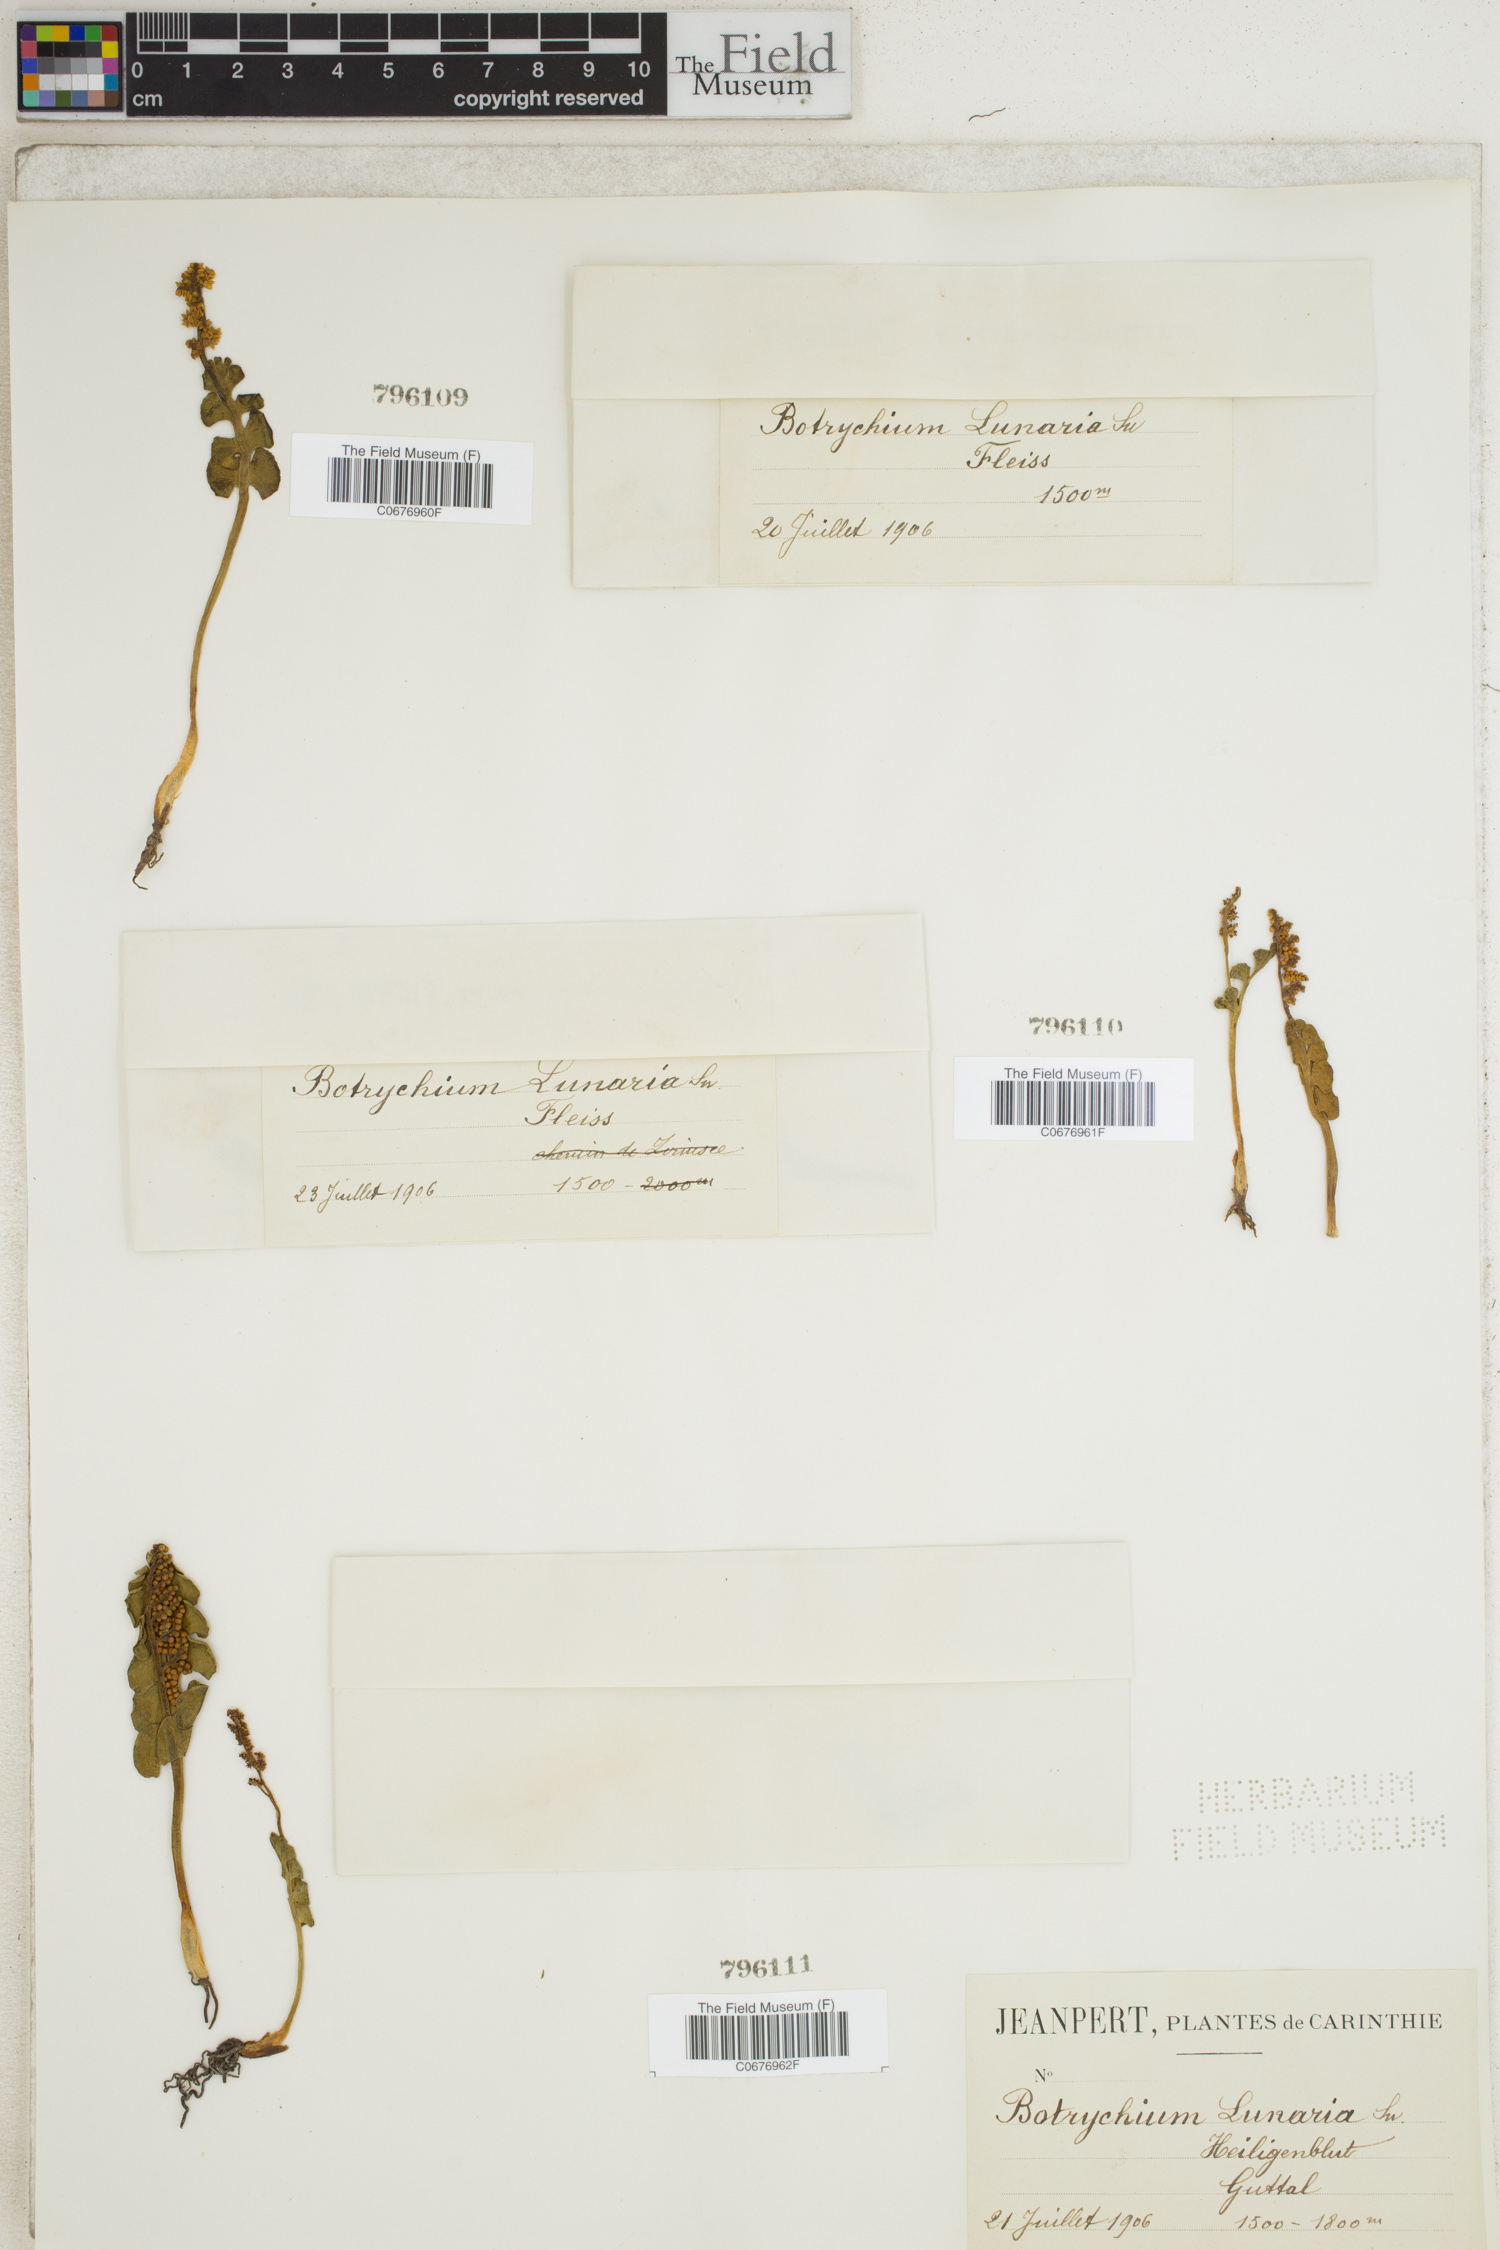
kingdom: Plantae
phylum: Tracheophyta
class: Polypodiopsida
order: Ophioglossales
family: Ophioglossaceae
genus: Botrychium
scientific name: Botrychium lunaria
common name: Moonwort
